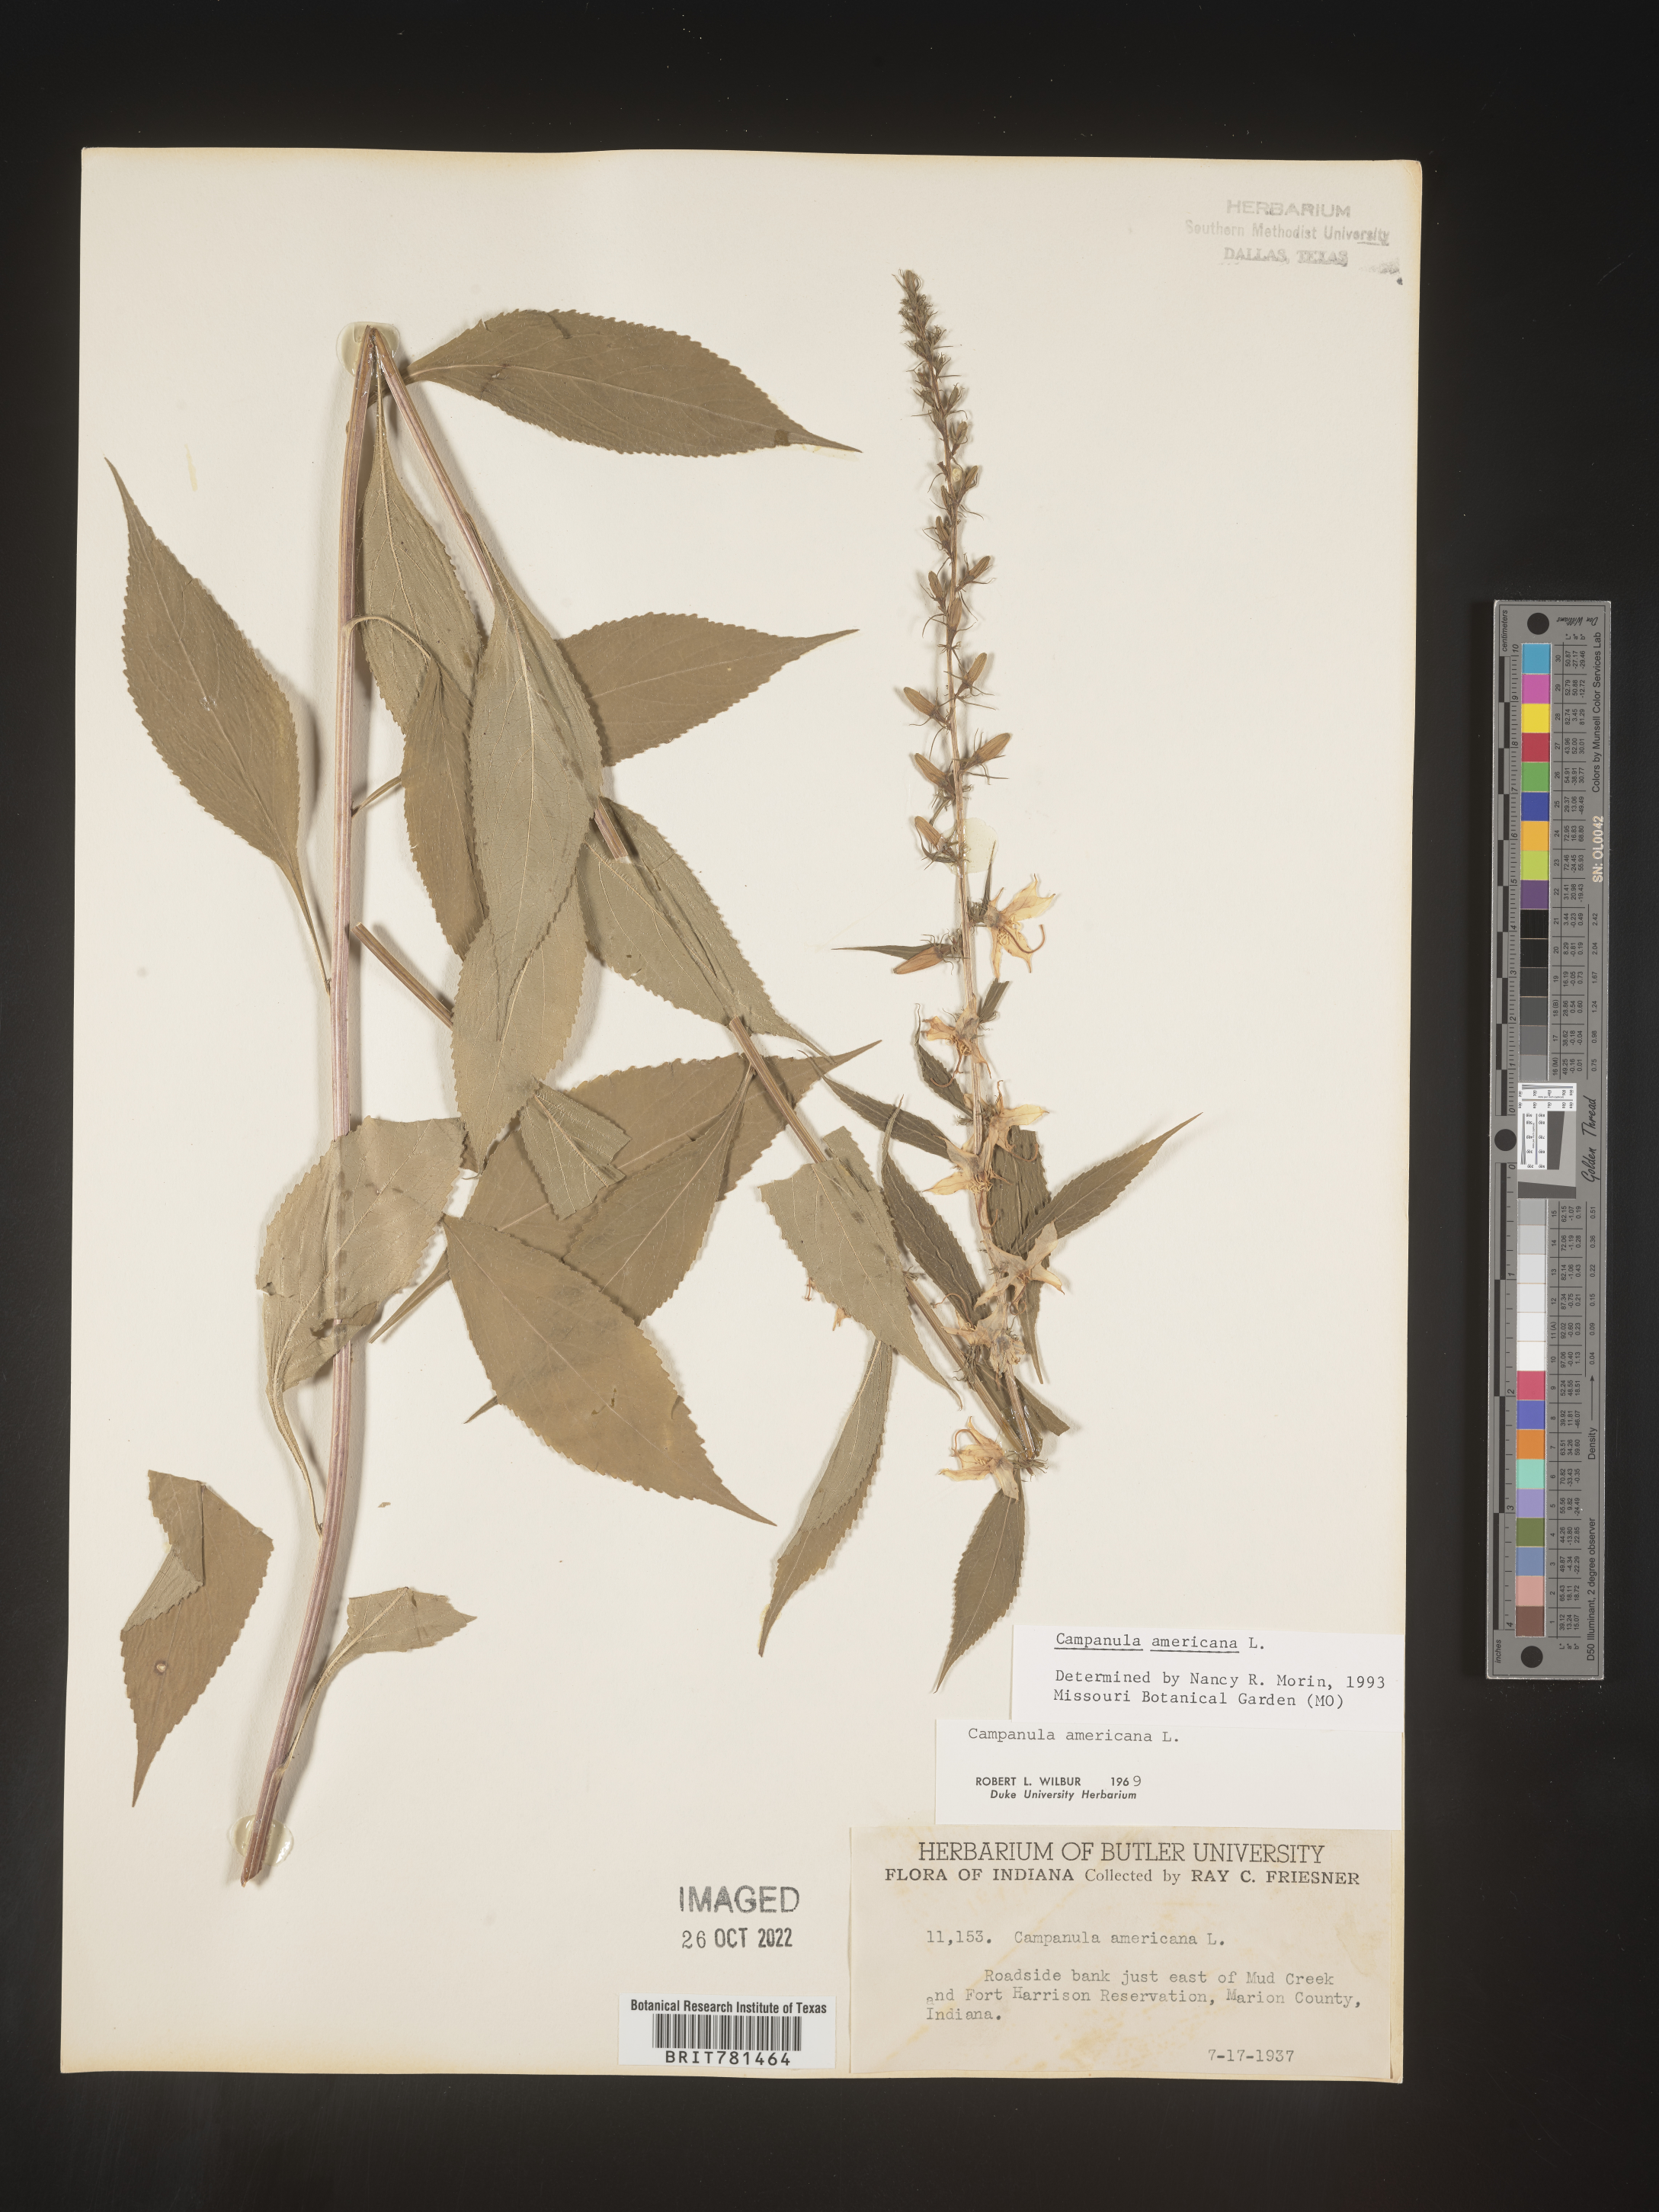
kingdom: Plantae
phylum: Tracheophyta
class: Magnoliopsida
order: Asterales
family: Campanulaceae
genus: Campanula
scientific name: Campanula americana
